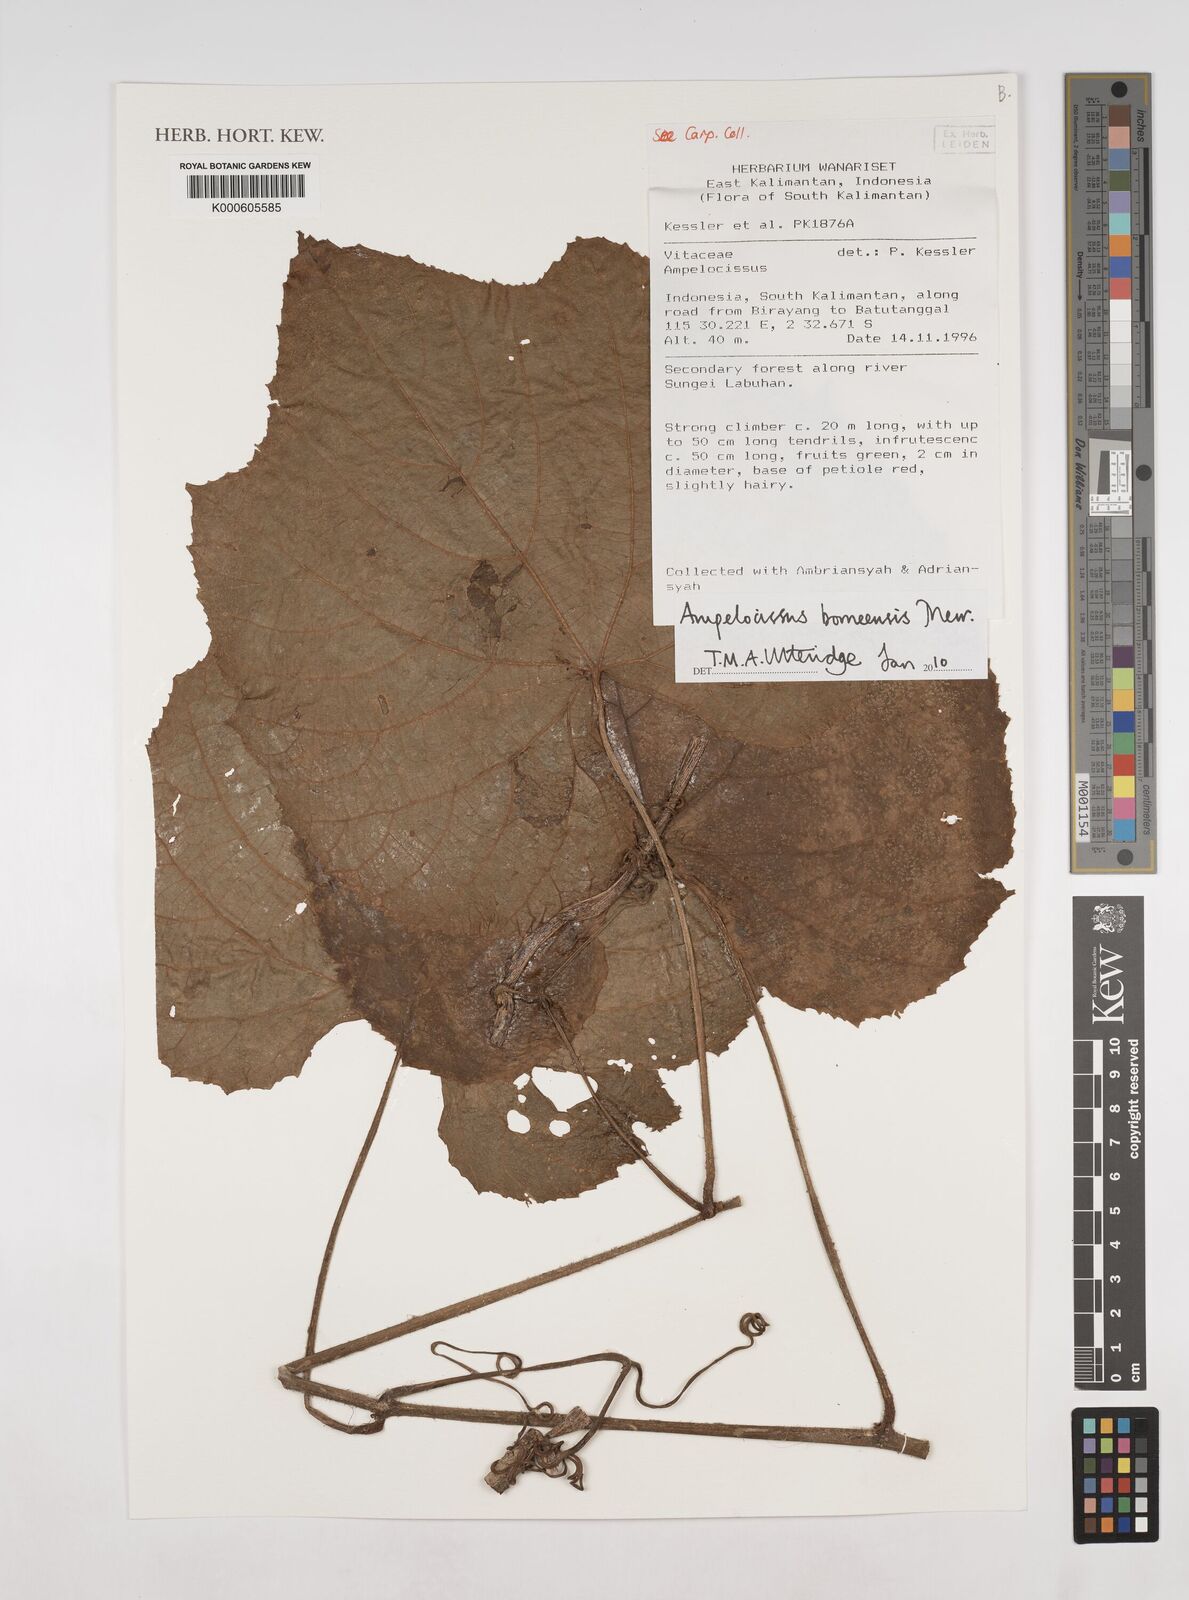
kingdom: Plantae
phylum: Tracheophyta
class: Magnoliopsida
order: Vitales
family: Vitaceae
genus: Ampelocissus
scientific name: Ampelocissus borneensis
